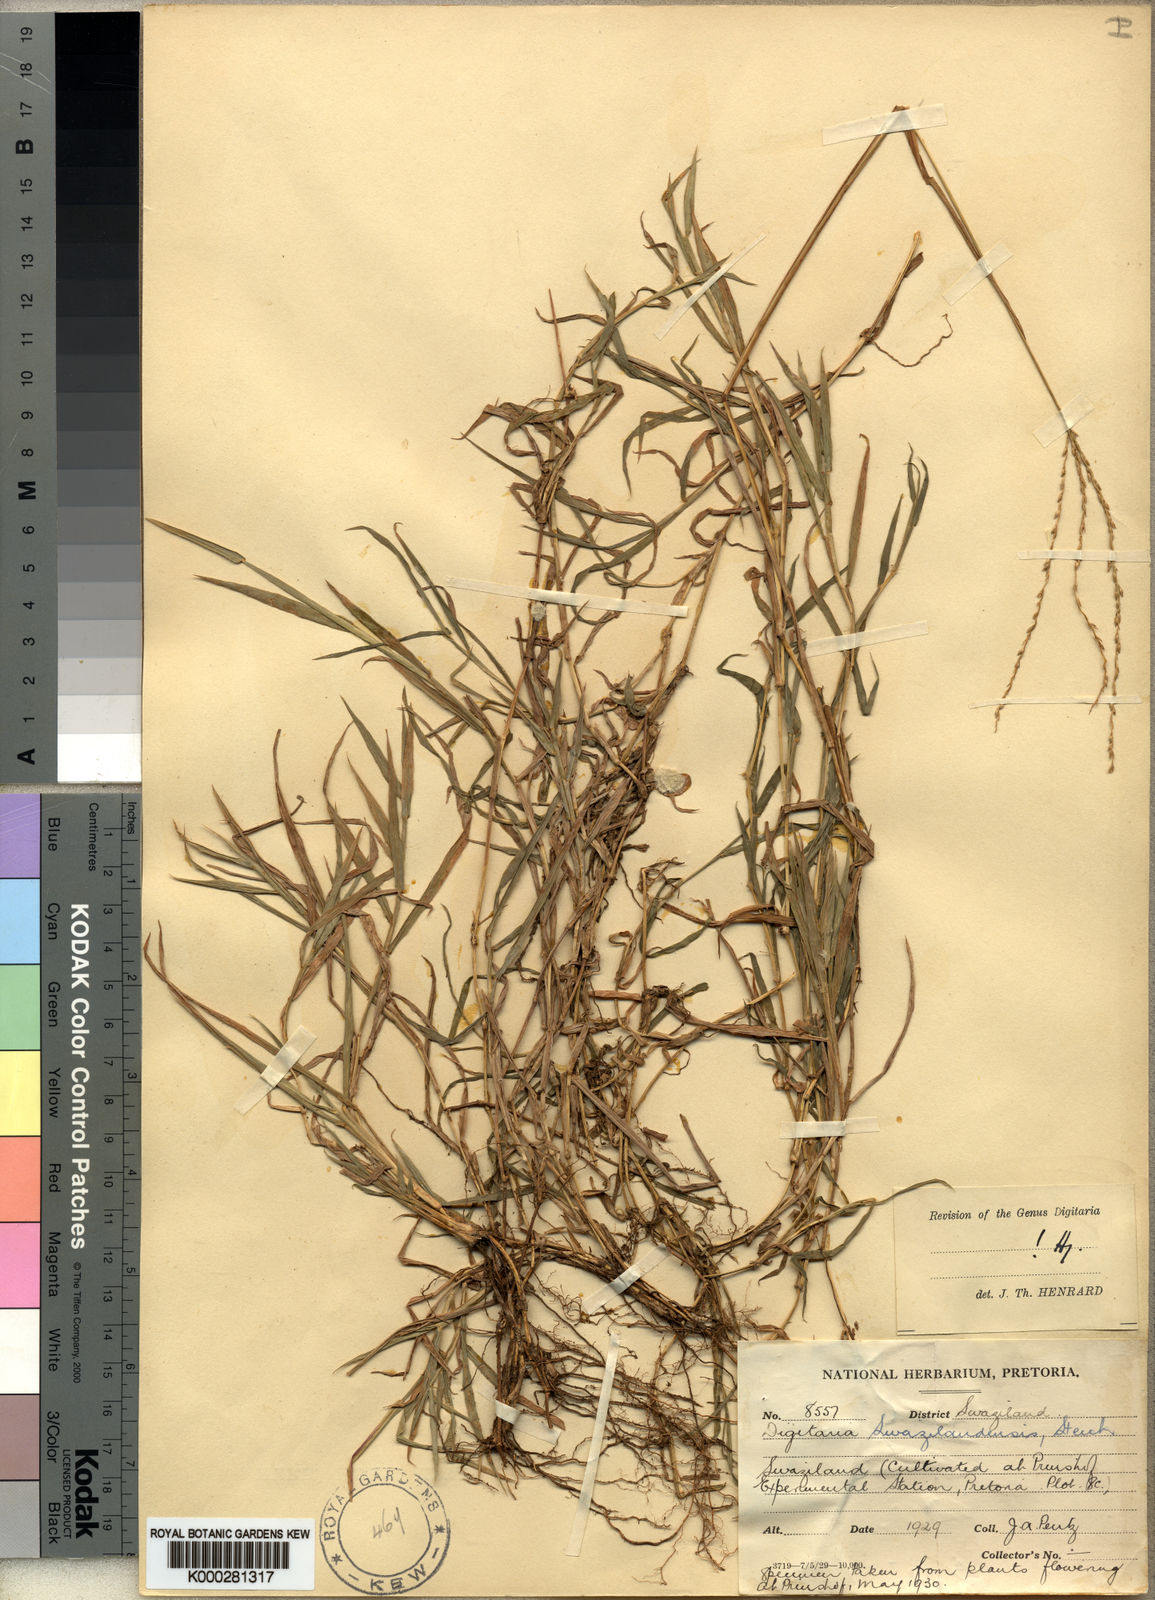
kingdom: Plantae
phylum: Tracheophyta
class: Liliopsida
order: Poales
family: Poaceae
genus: Digitaria
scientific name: Digitaria didactyla
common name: Blue couch
